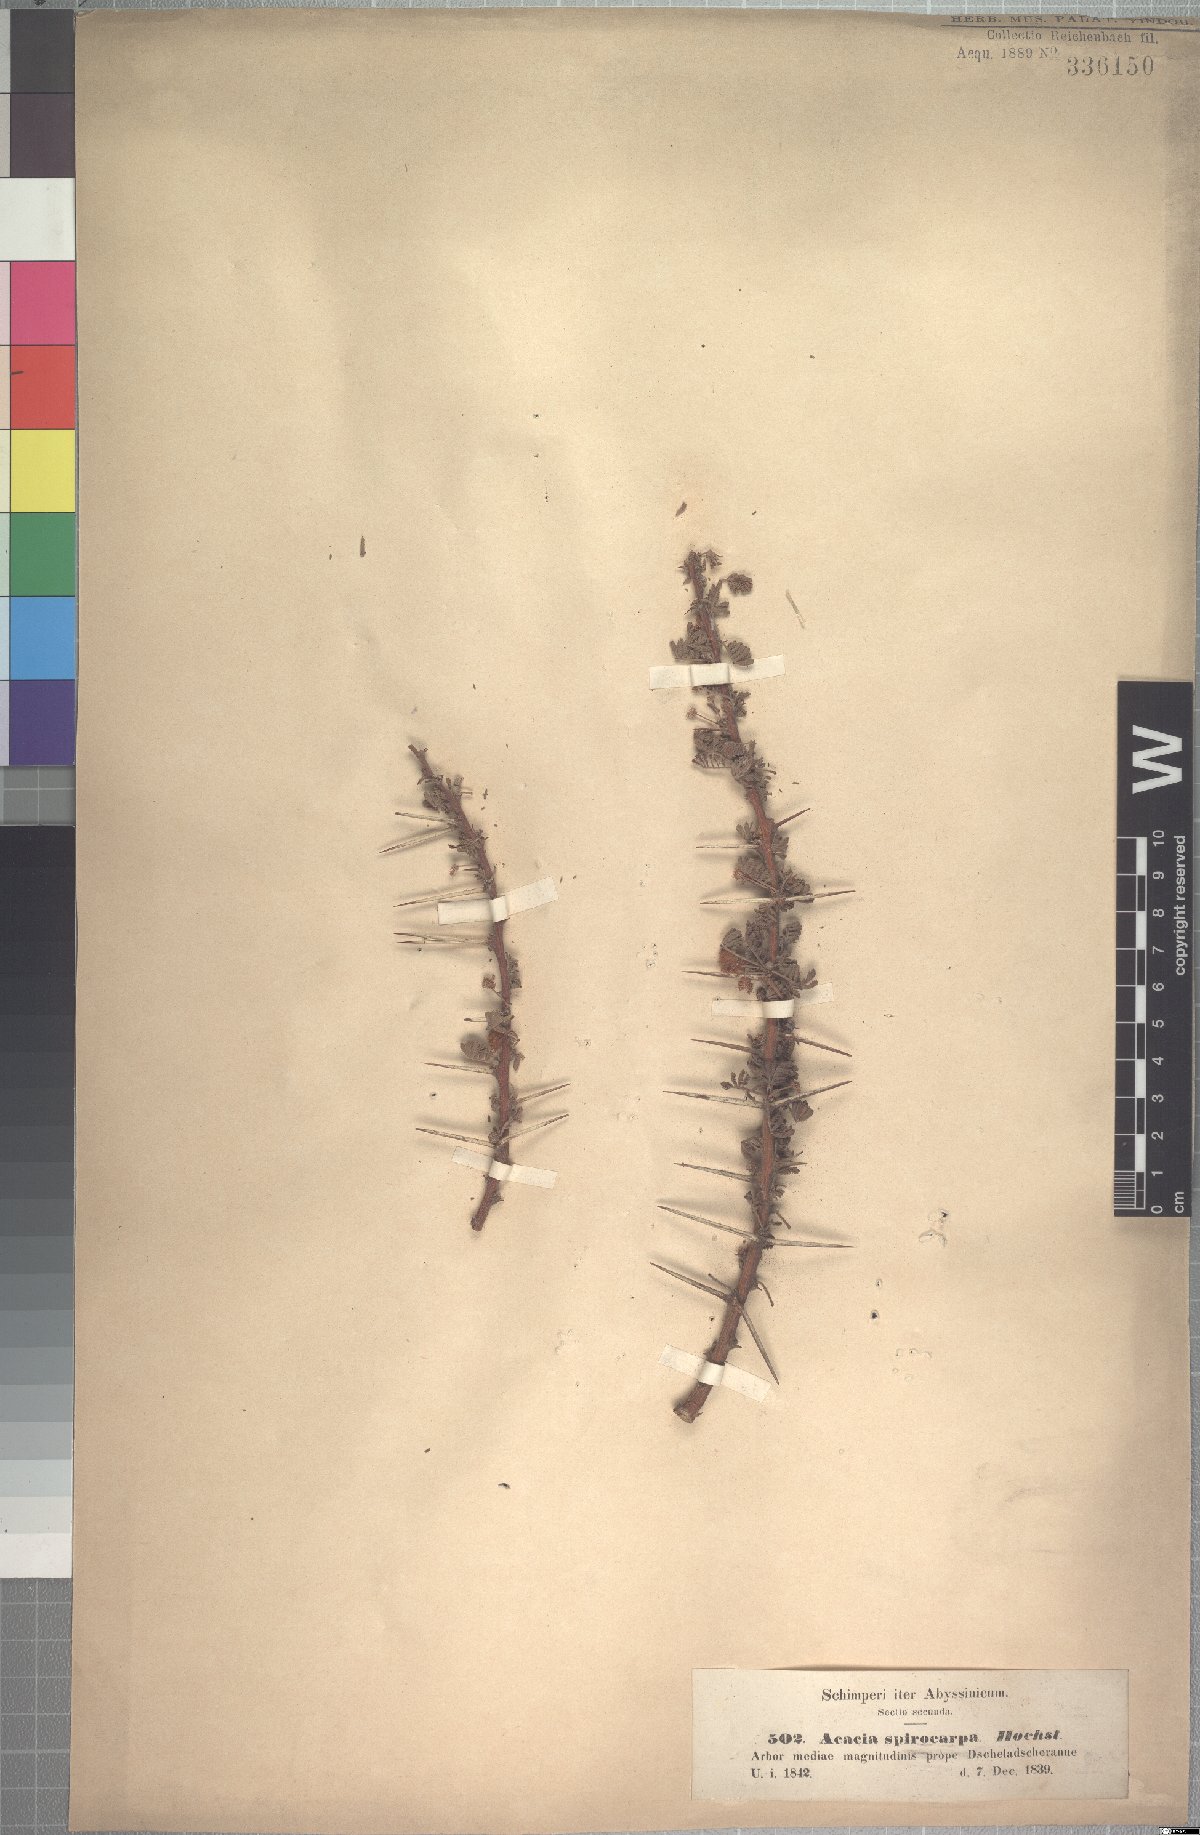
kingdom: Plantae
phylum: Tracheophyta
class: Magnoliopsida
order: Fabales
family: Fabaceae
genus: Vachellia
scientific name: Vachellia tortilis
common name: Umbrella thorn acacia
